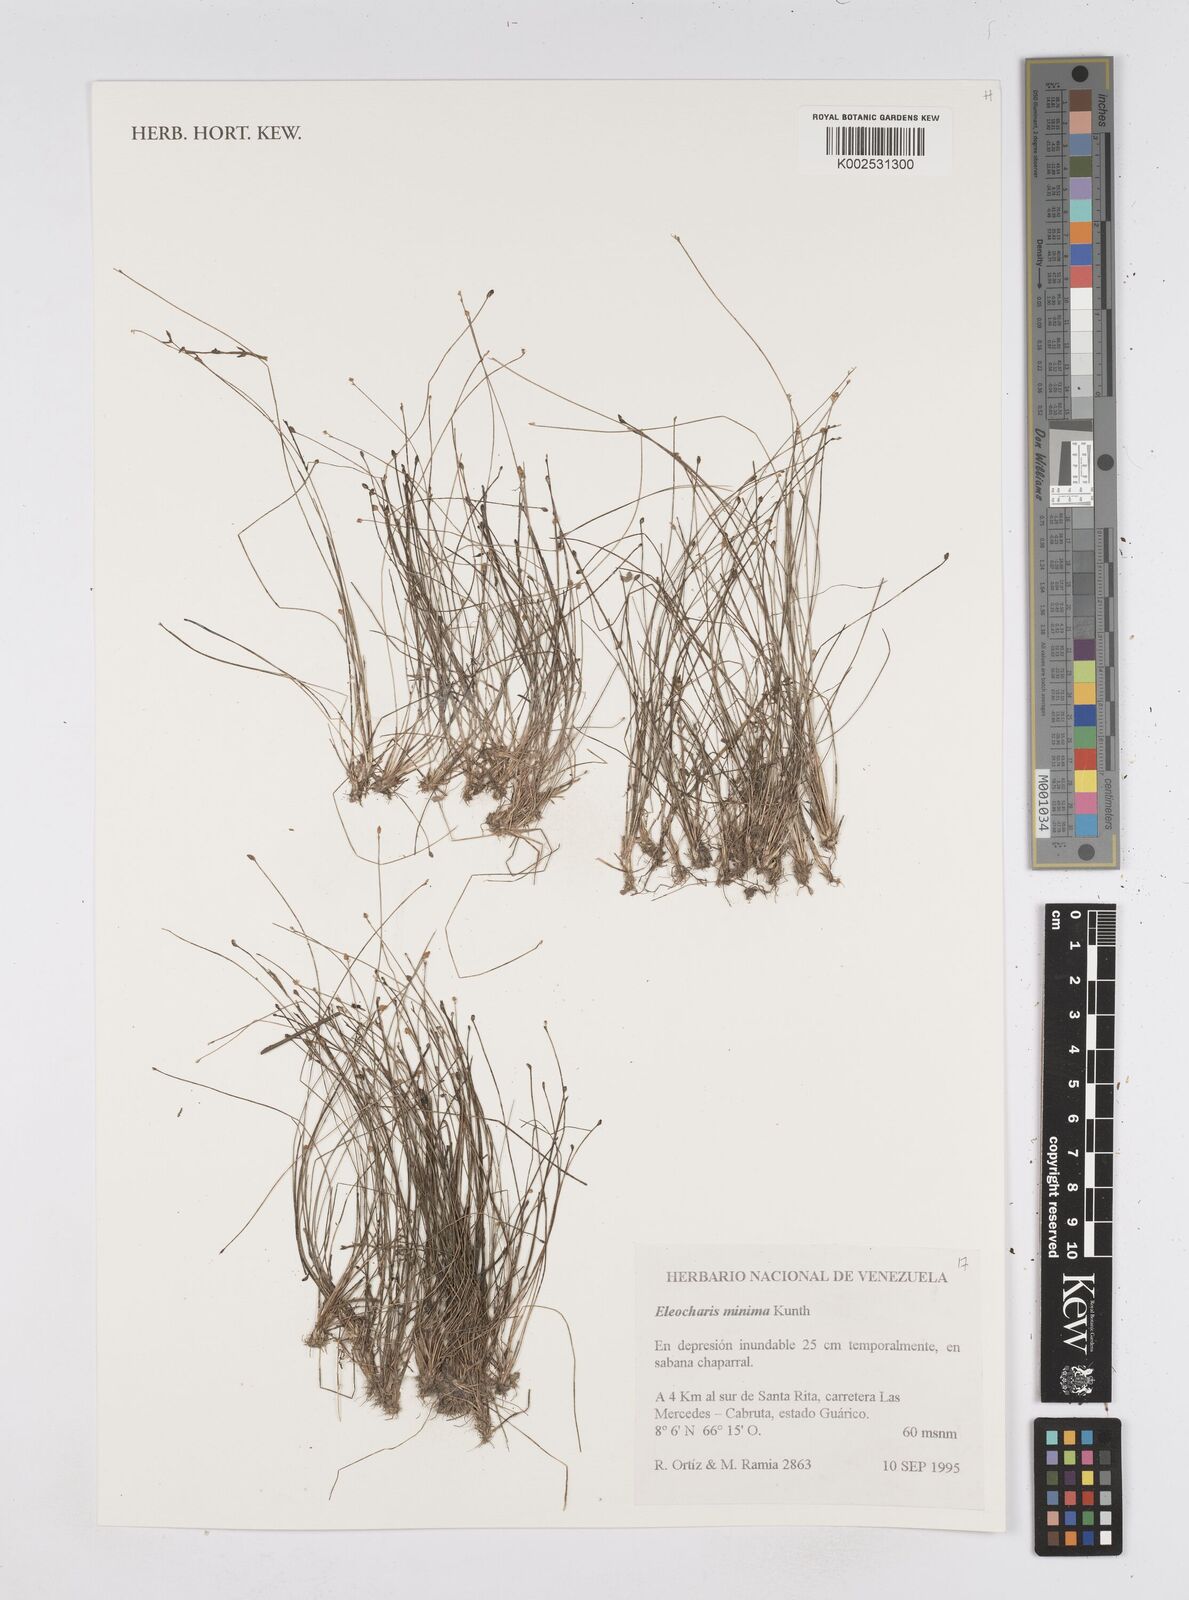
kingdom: Plantae
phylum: Tracheophyta
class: Liliopsida
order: Poales
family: Cyperaceae
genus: Eleocharis
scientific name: Eleocharis minima
